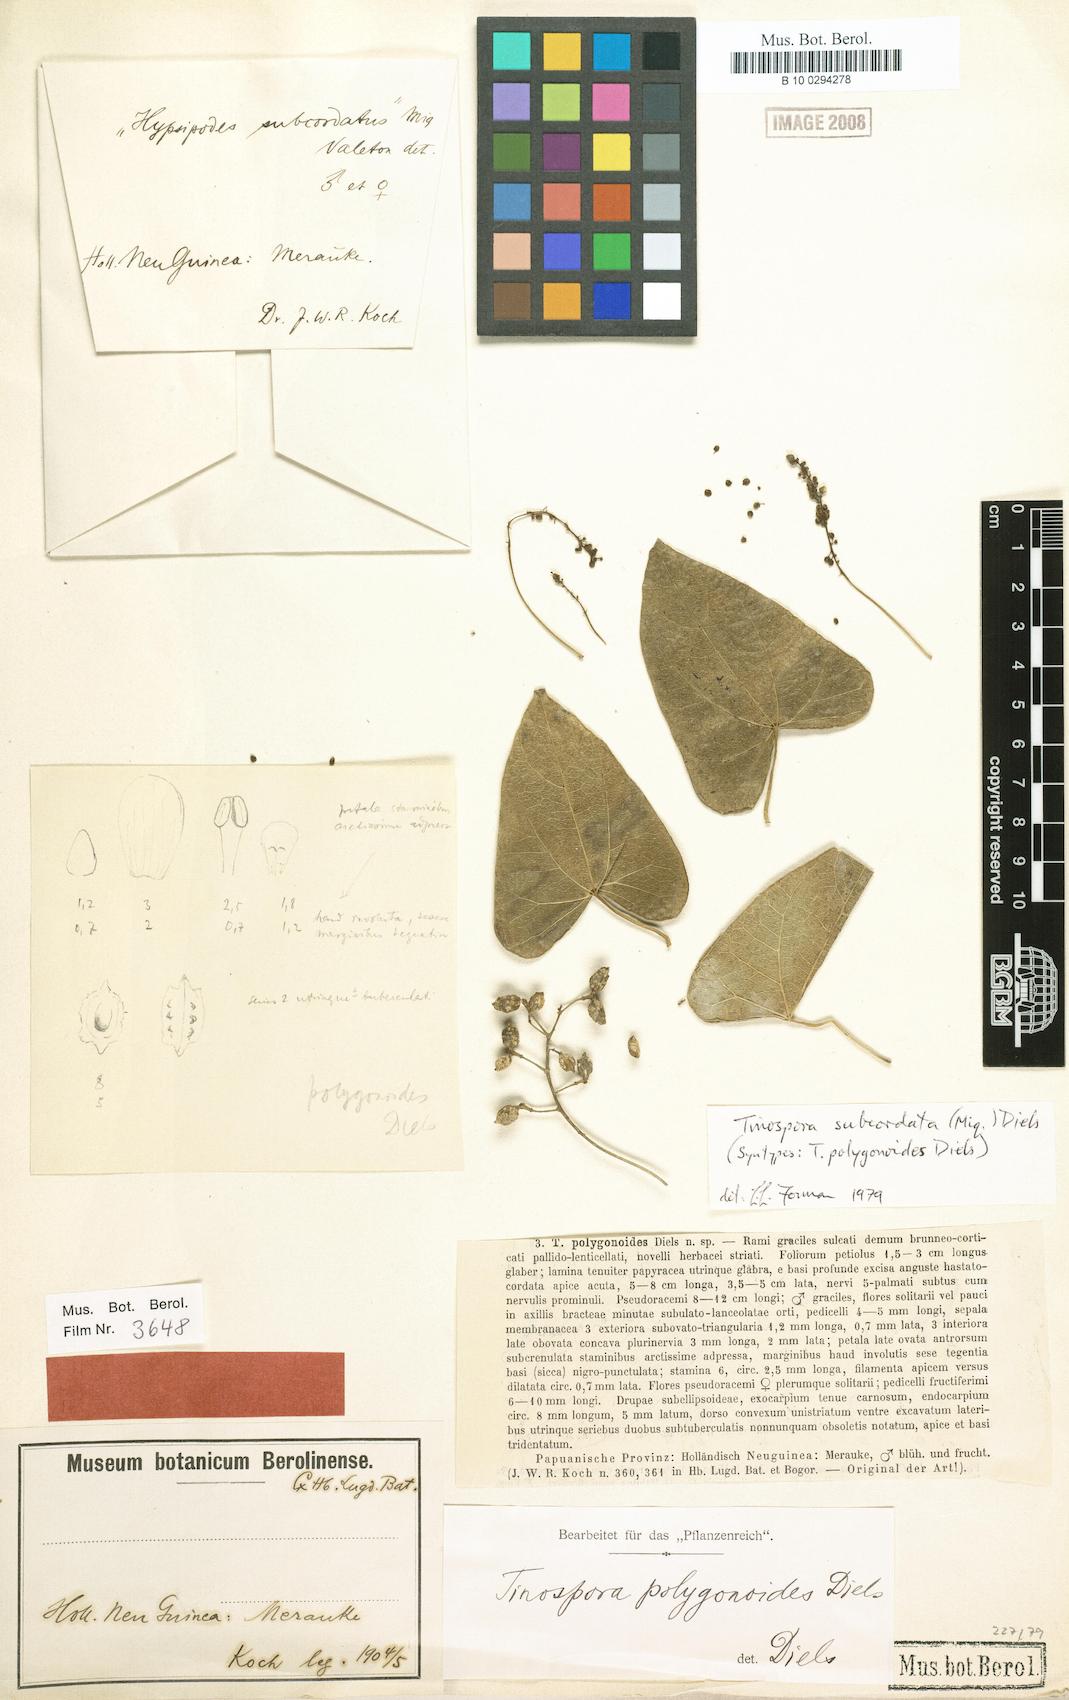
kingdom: Plantae
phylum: Tracheophyta
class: Magnoliopsida
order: Ranunculales
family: Menispermaceae
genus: Tinospora
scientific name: Tinospora subcordata
